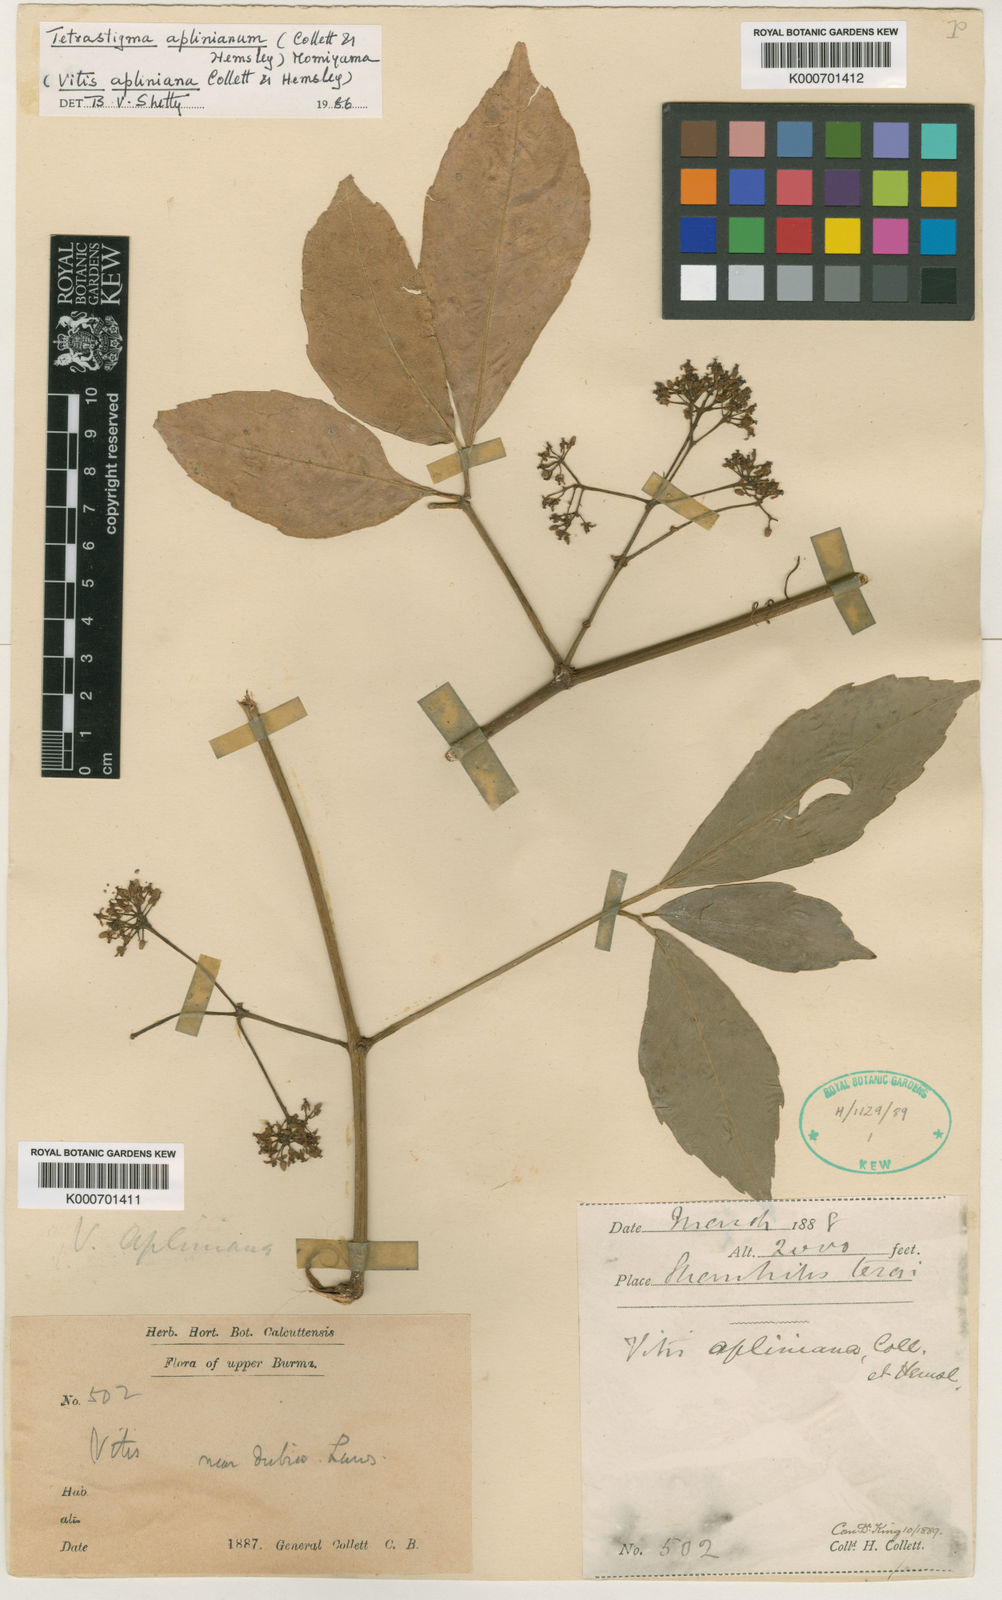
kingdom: Plantae
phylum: Tracheophyta
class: Magnoliopsida
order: Vitales
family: Vitaceae
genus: Tetrastigma
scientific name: Tetrastigma aplinianum
